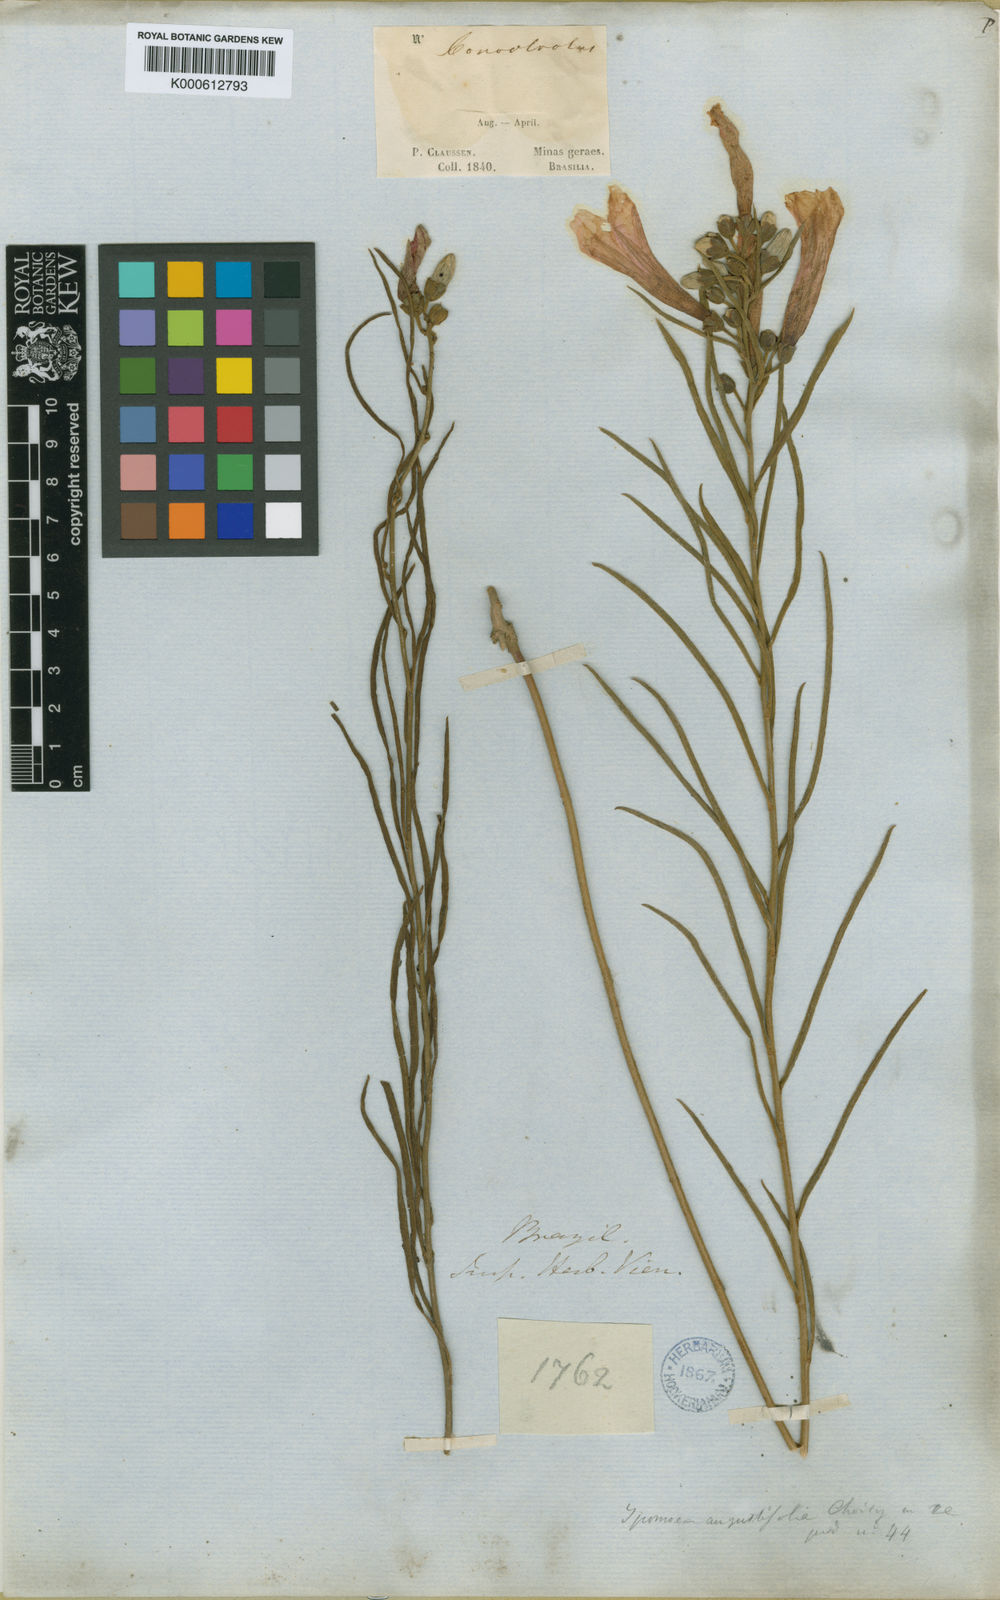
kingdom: Plantae
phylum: Tracheophyta
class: Magnoliopsida
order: Solanales
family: Convolvulaceae
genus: Ipomoea
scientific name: Ipomoea aprica
